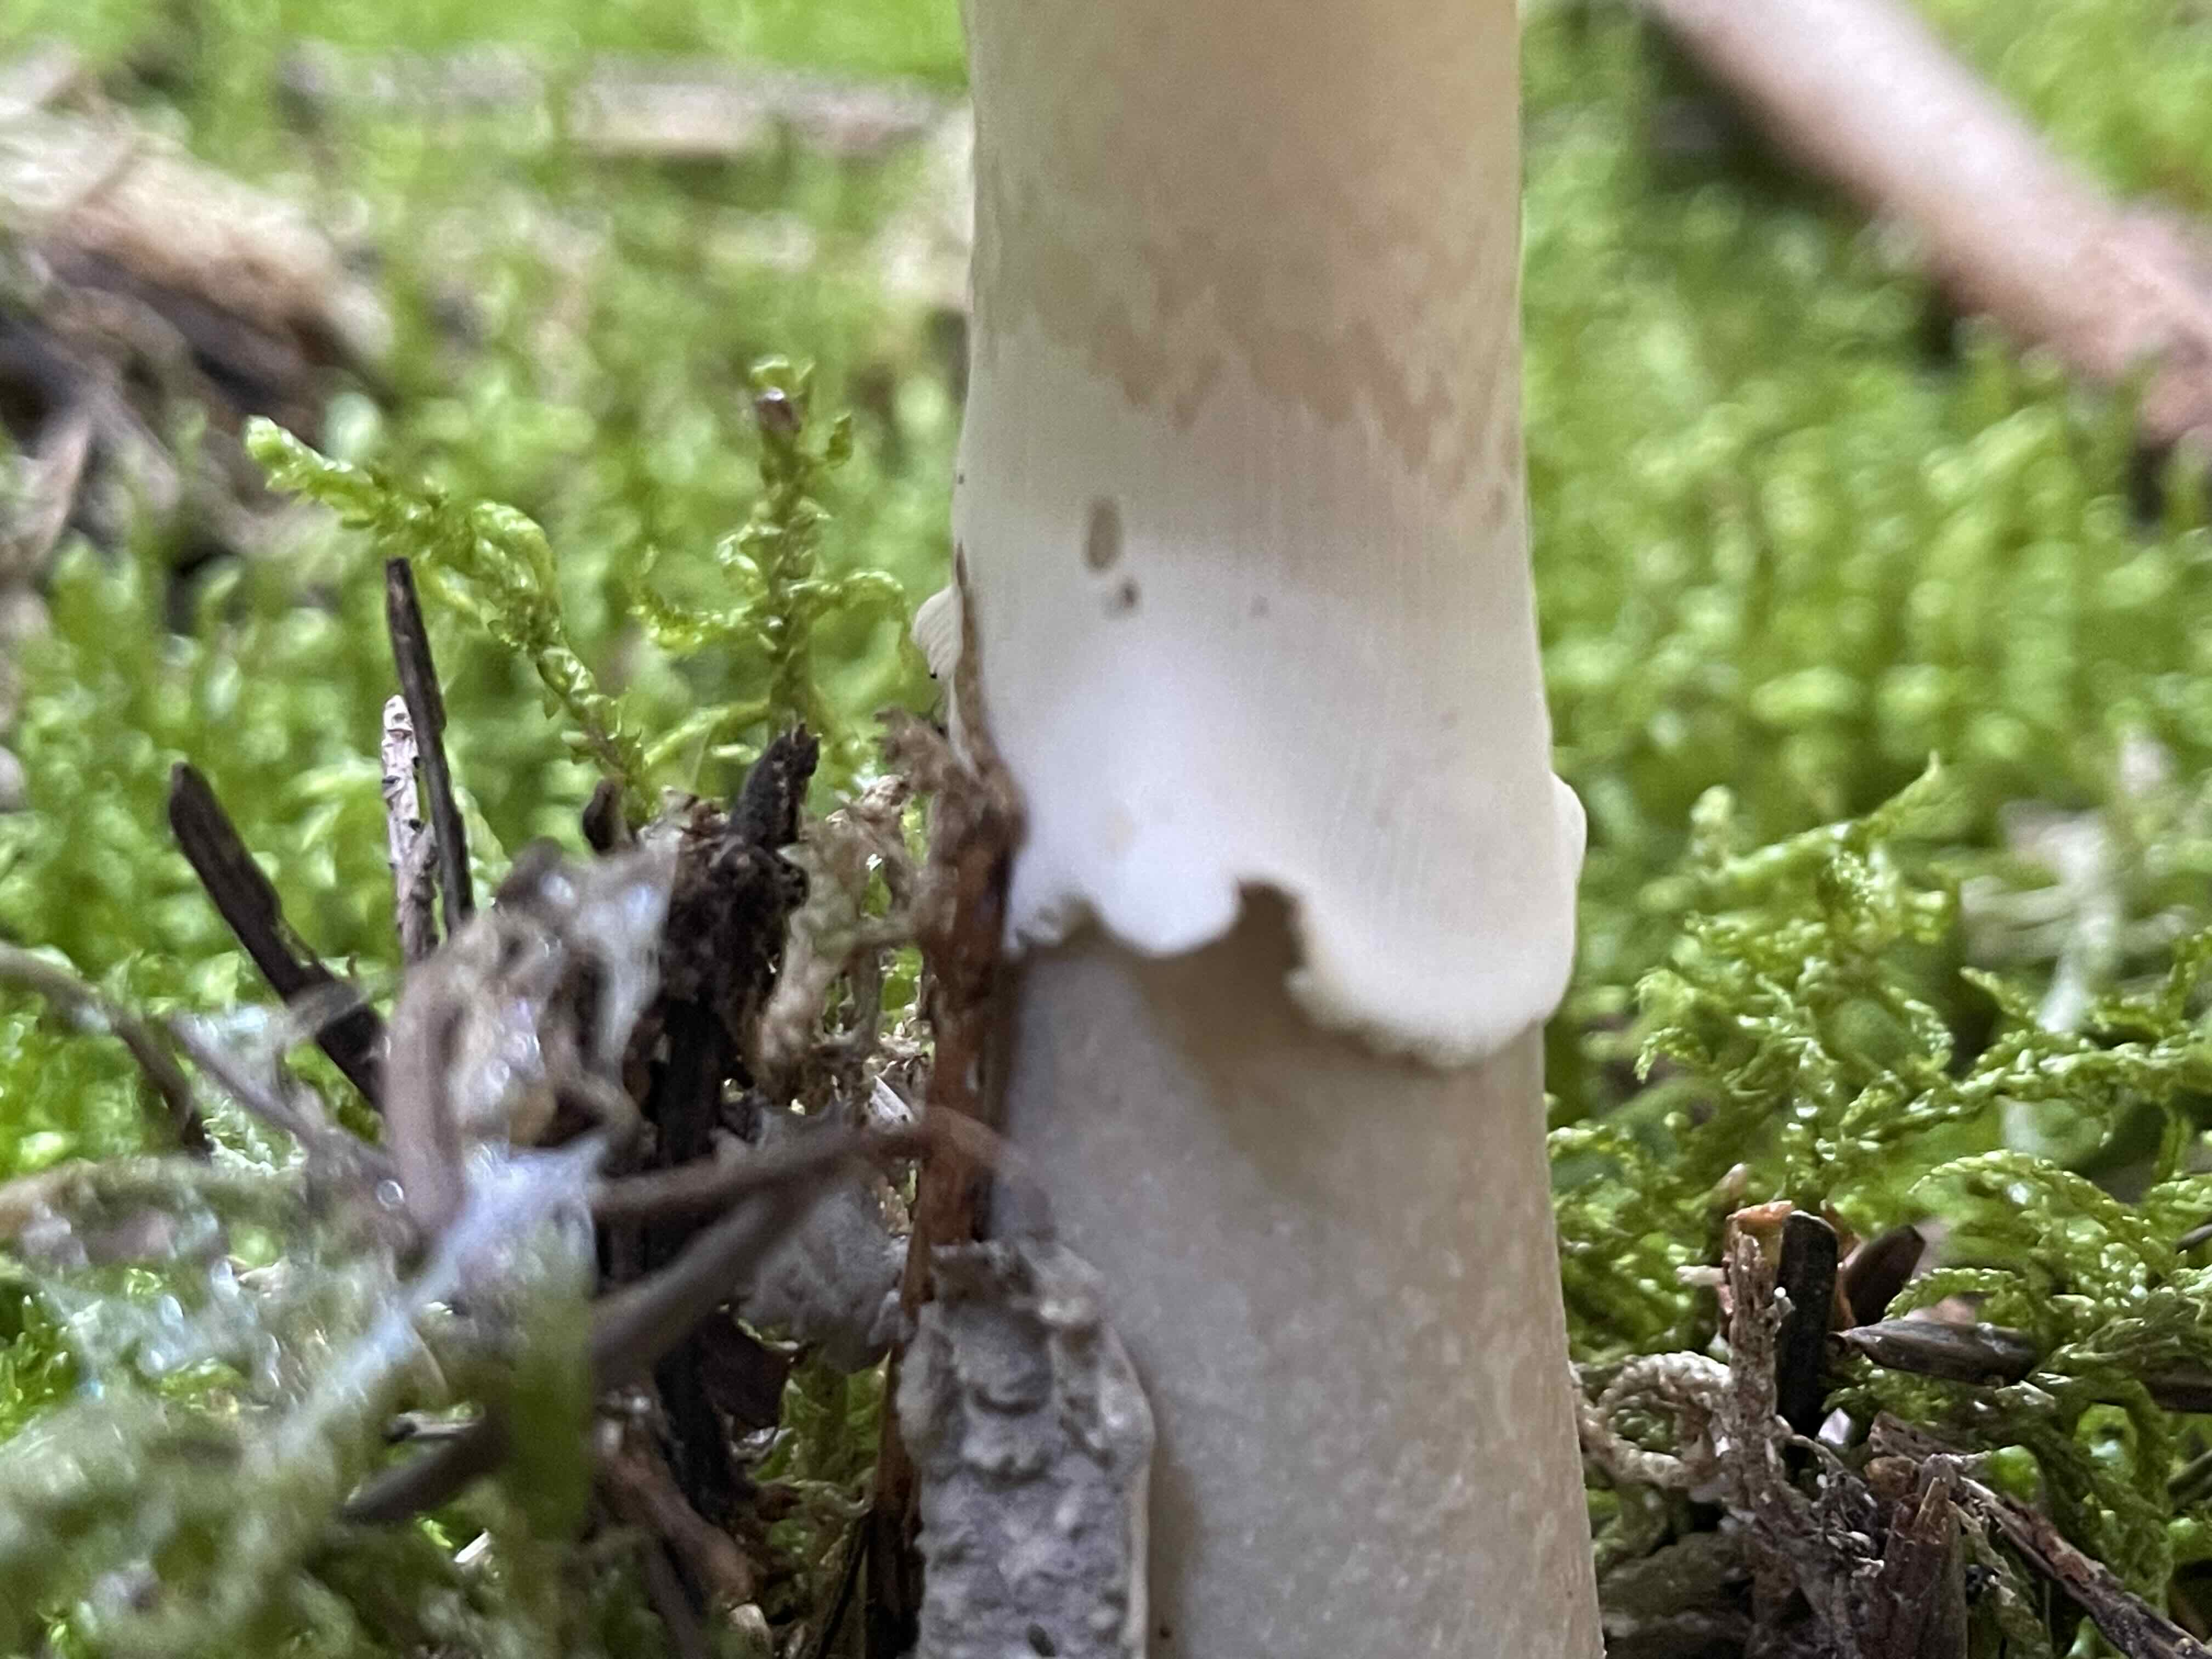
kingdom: Fungi
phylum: Basidiomycota
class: Agaricomycetes
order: Agaricales
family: Amanitaceae
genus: Amanita
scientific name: Amanita
